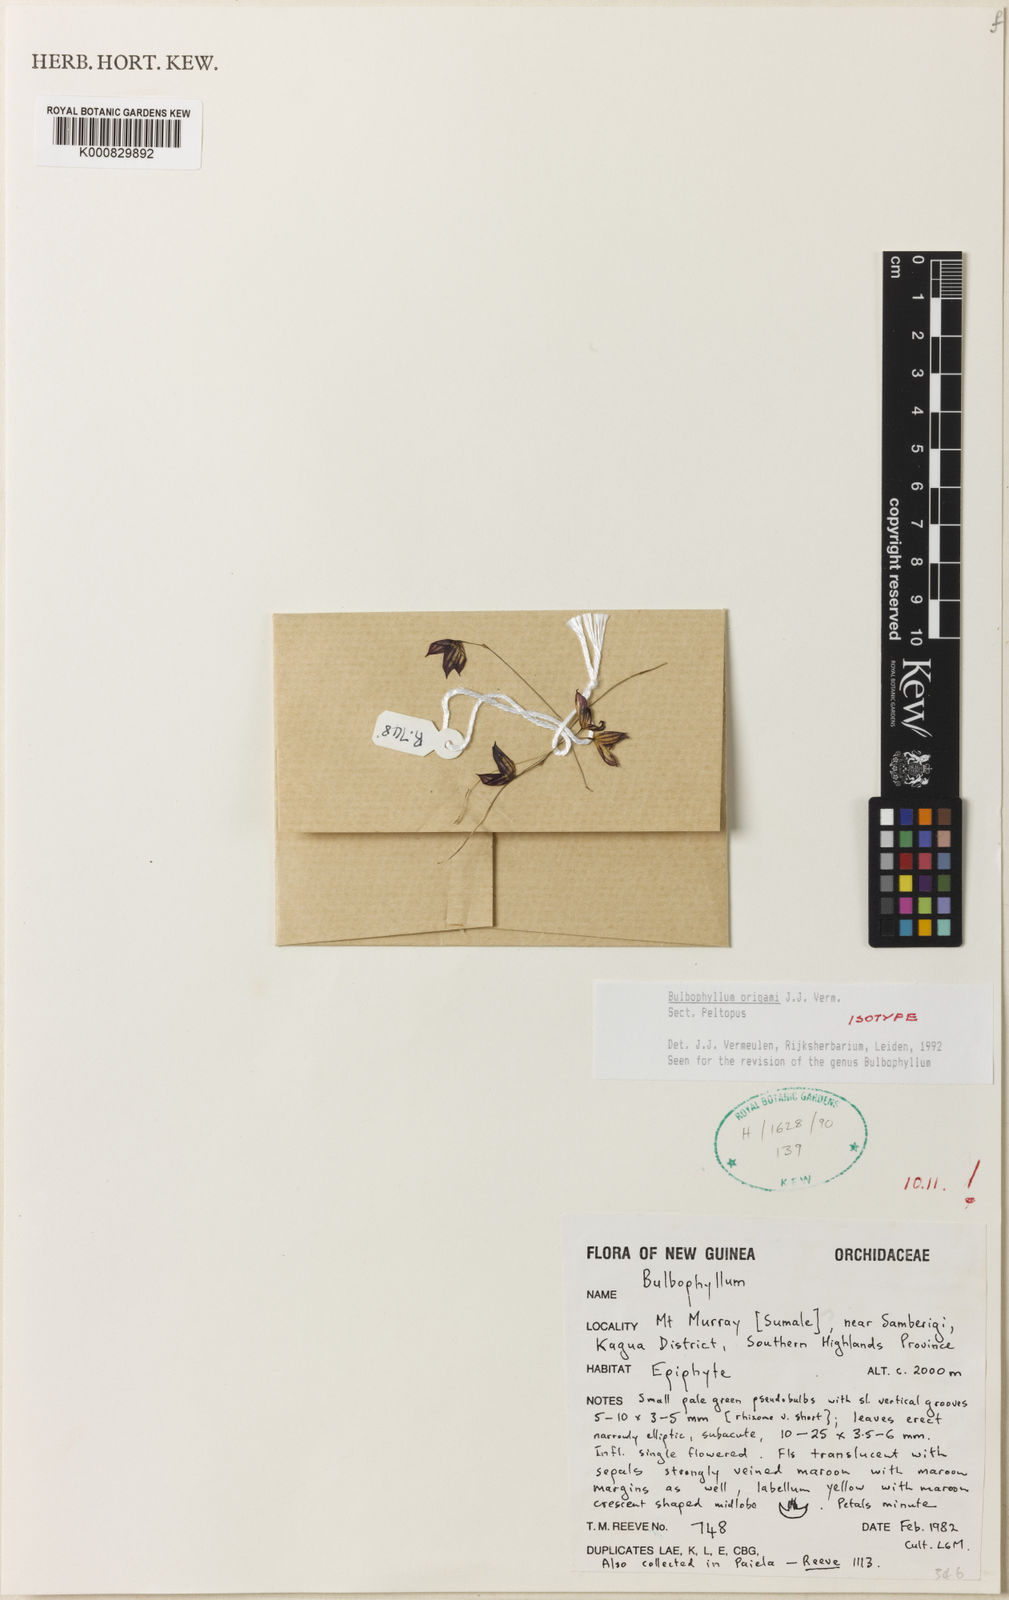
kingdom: Plantae
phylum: Tracheophyta
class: Liliopsida
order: Asparagales
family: Orchidaceae
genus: Bulbophyllum
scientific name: Bulbophyllum
